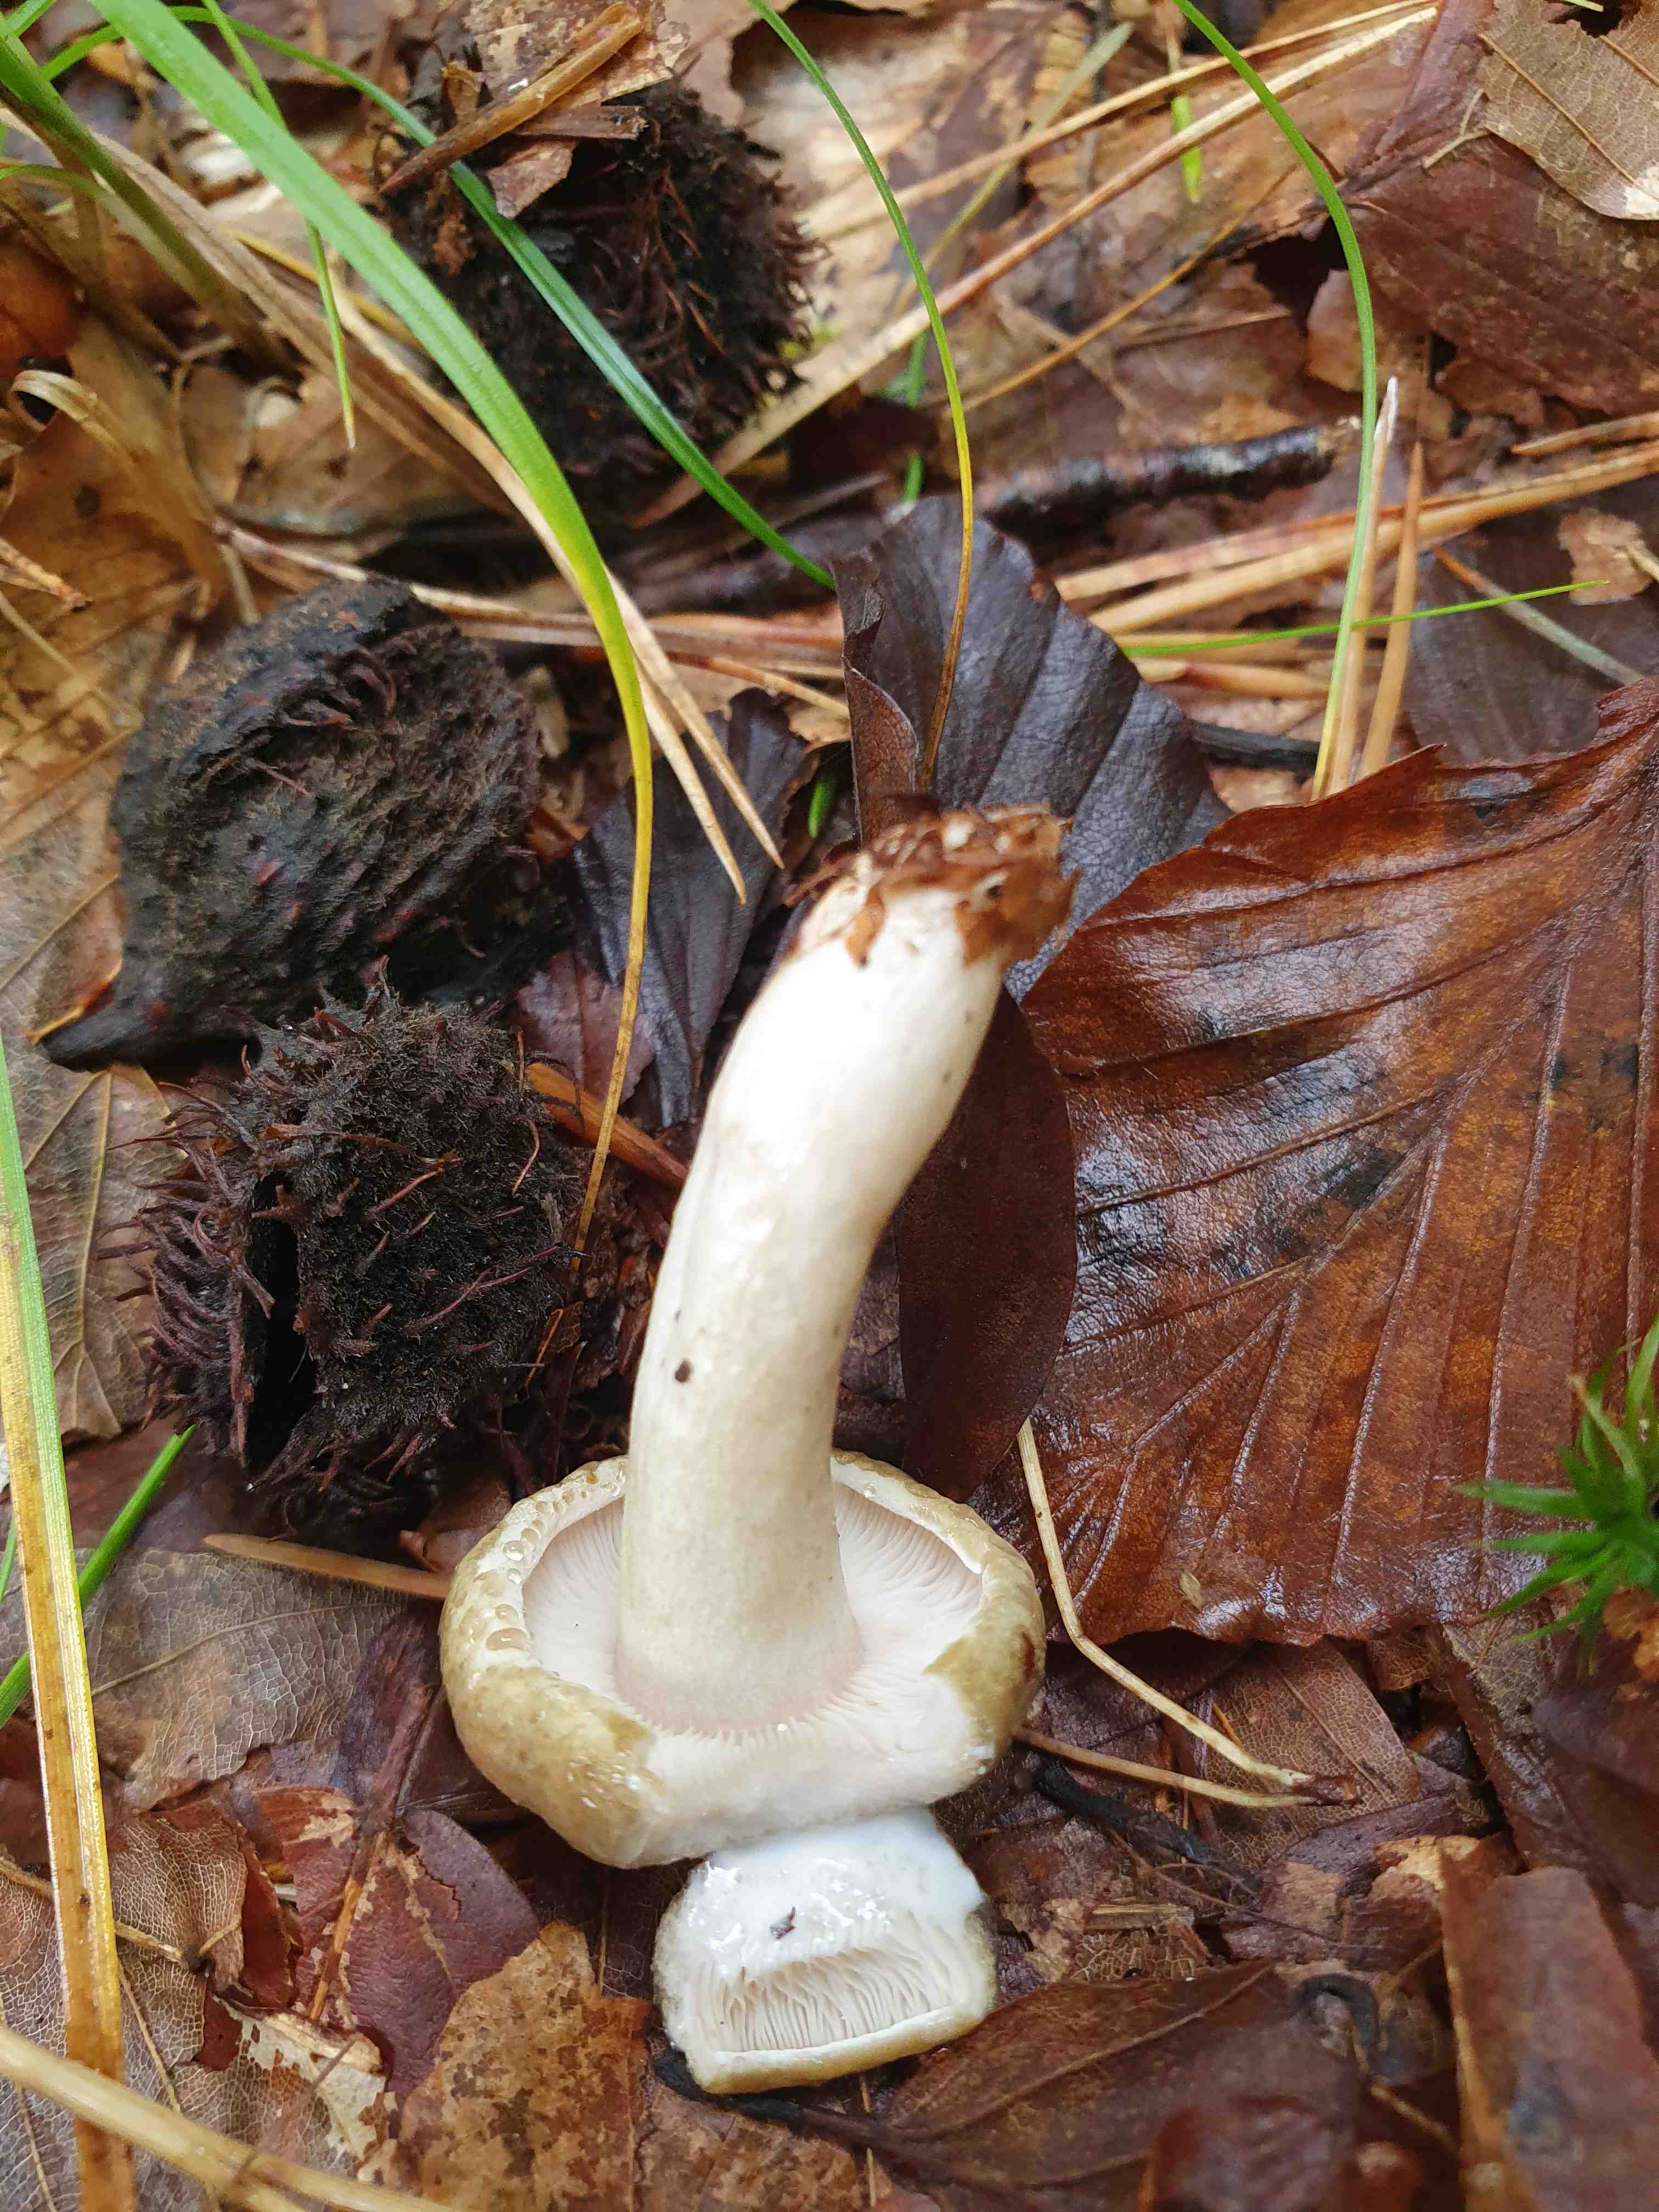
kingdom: Fungi
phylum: Basidiomycota
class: Agaricomycetes
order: Russulales
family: Russulaceae
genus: Lactarius
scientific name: Lactarius blennius
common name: dråbeplettet mælkehat
